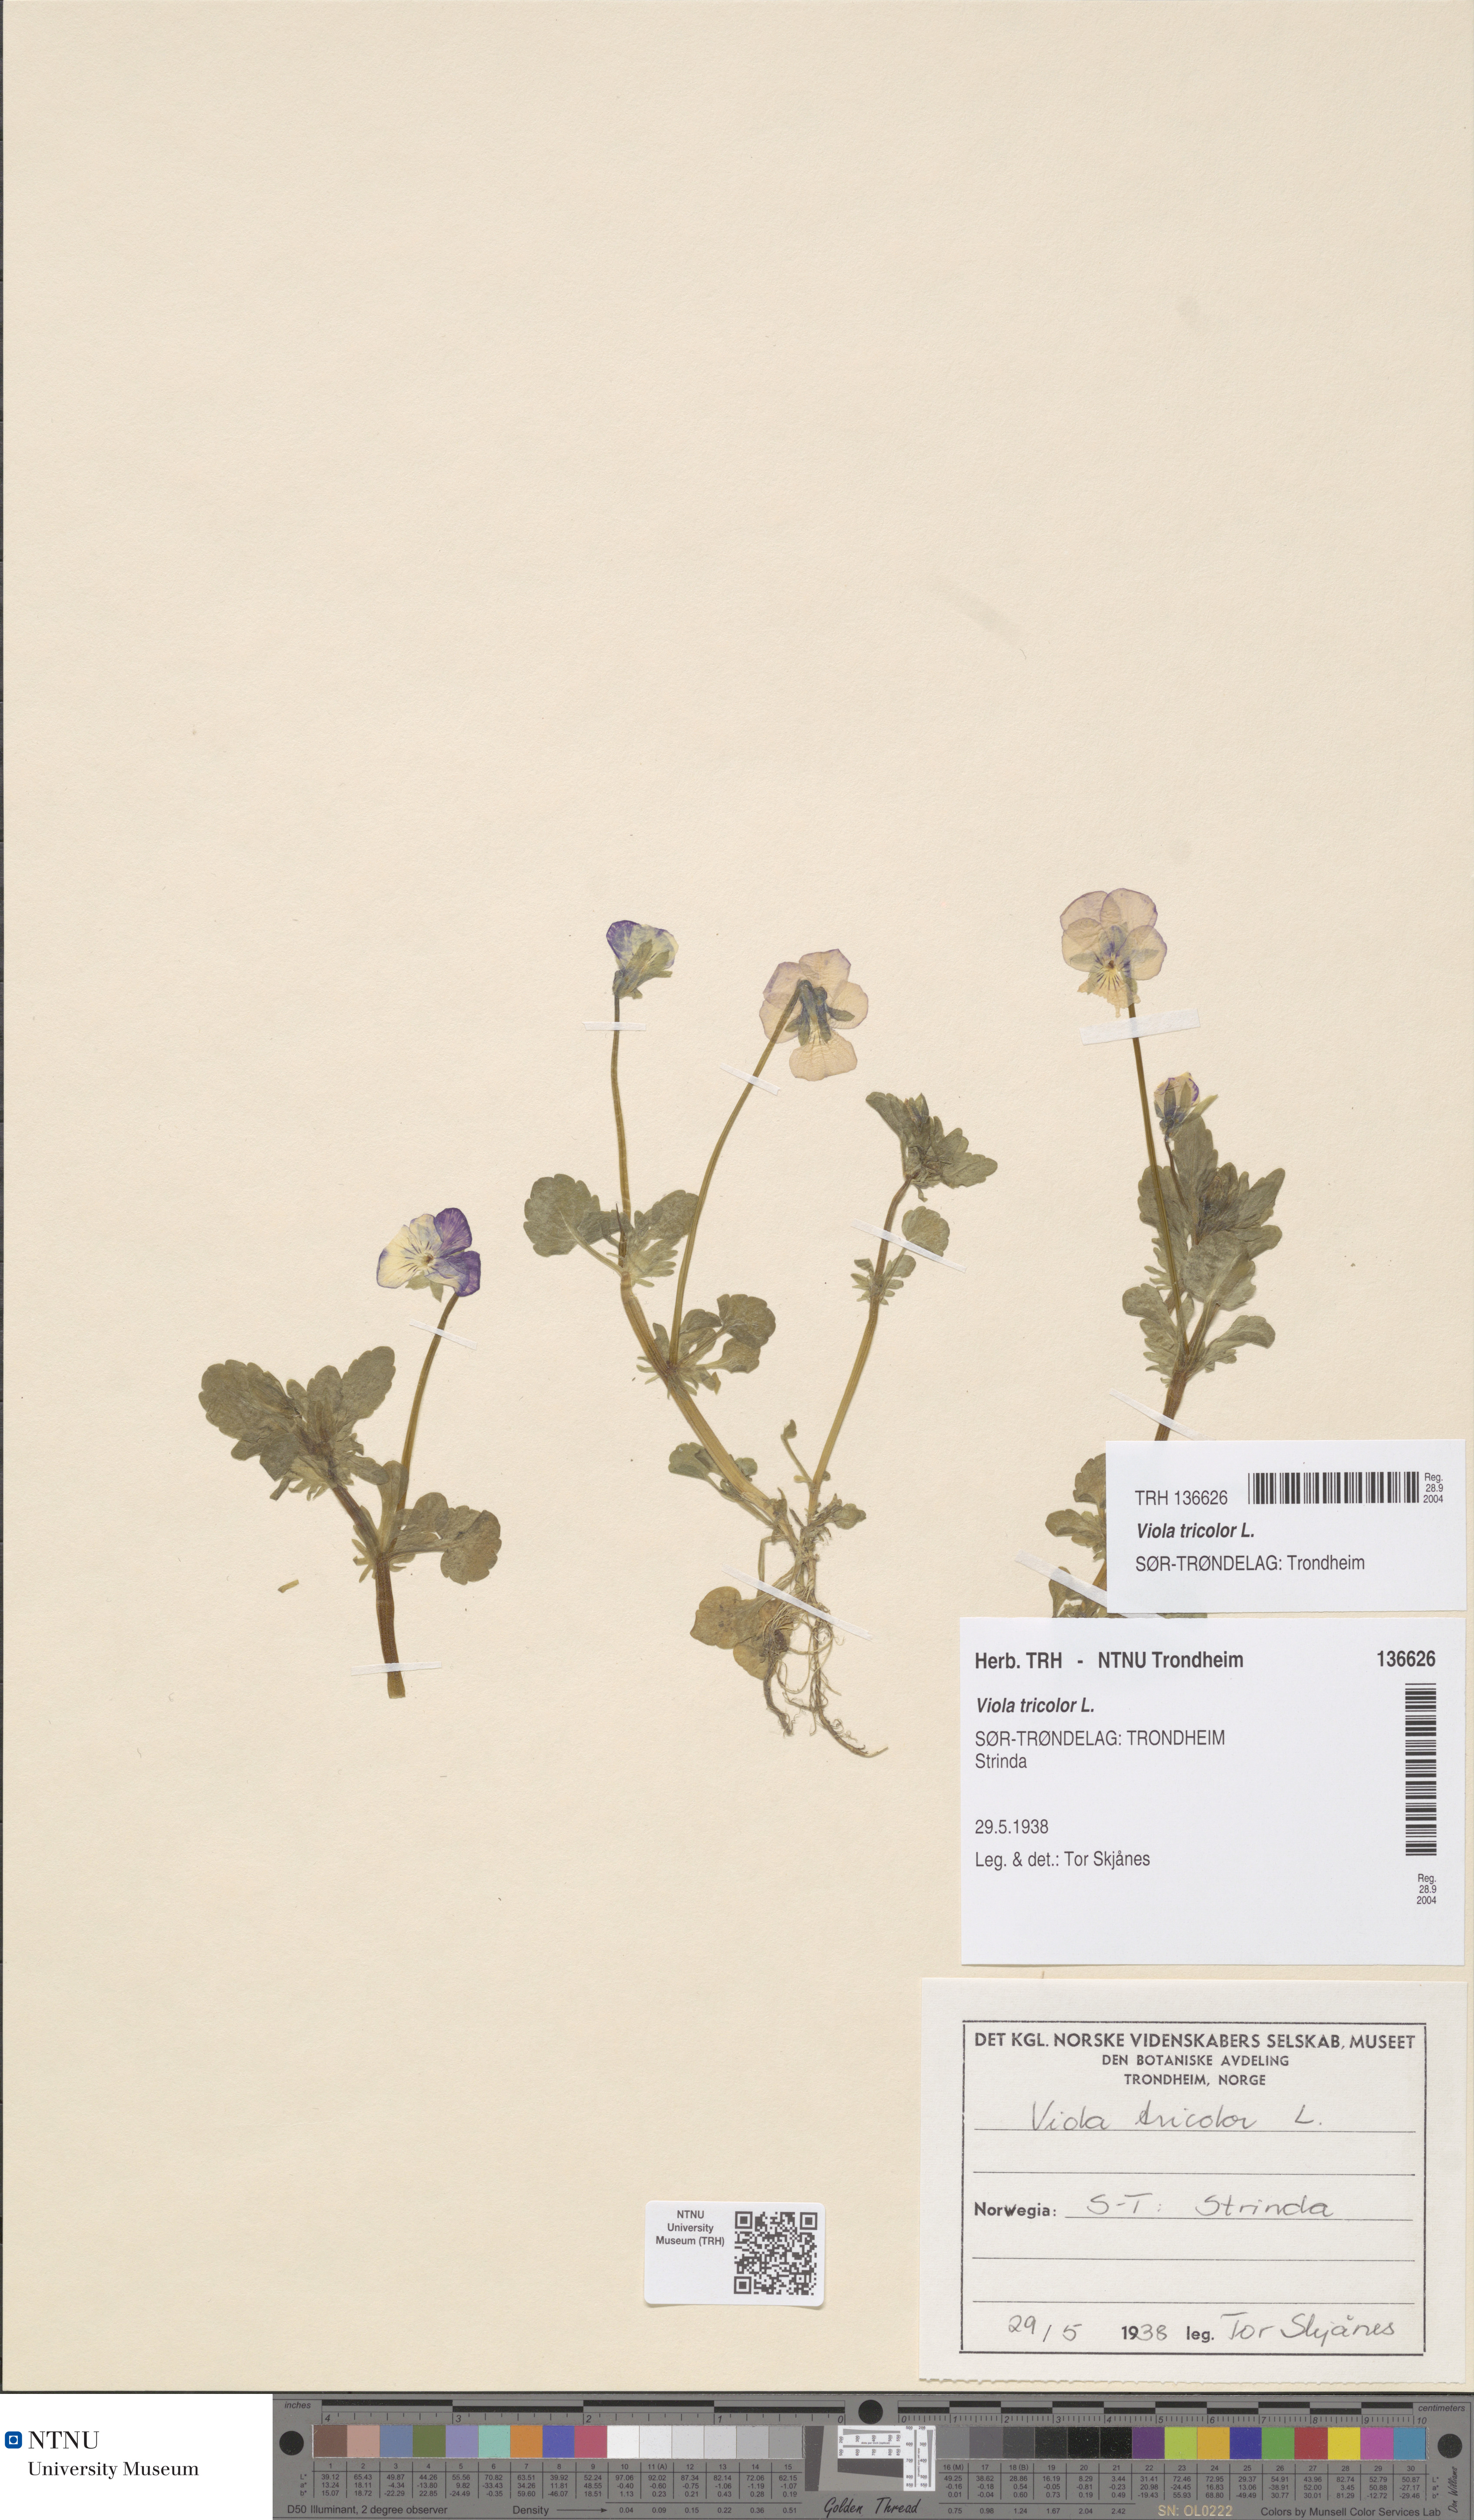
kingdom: Plantae
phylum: Tracheophyta
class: Magnoliopsida
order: Malpighiales
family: Violaceae
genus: Viola
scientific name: Viola tricolor
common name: Pansy
